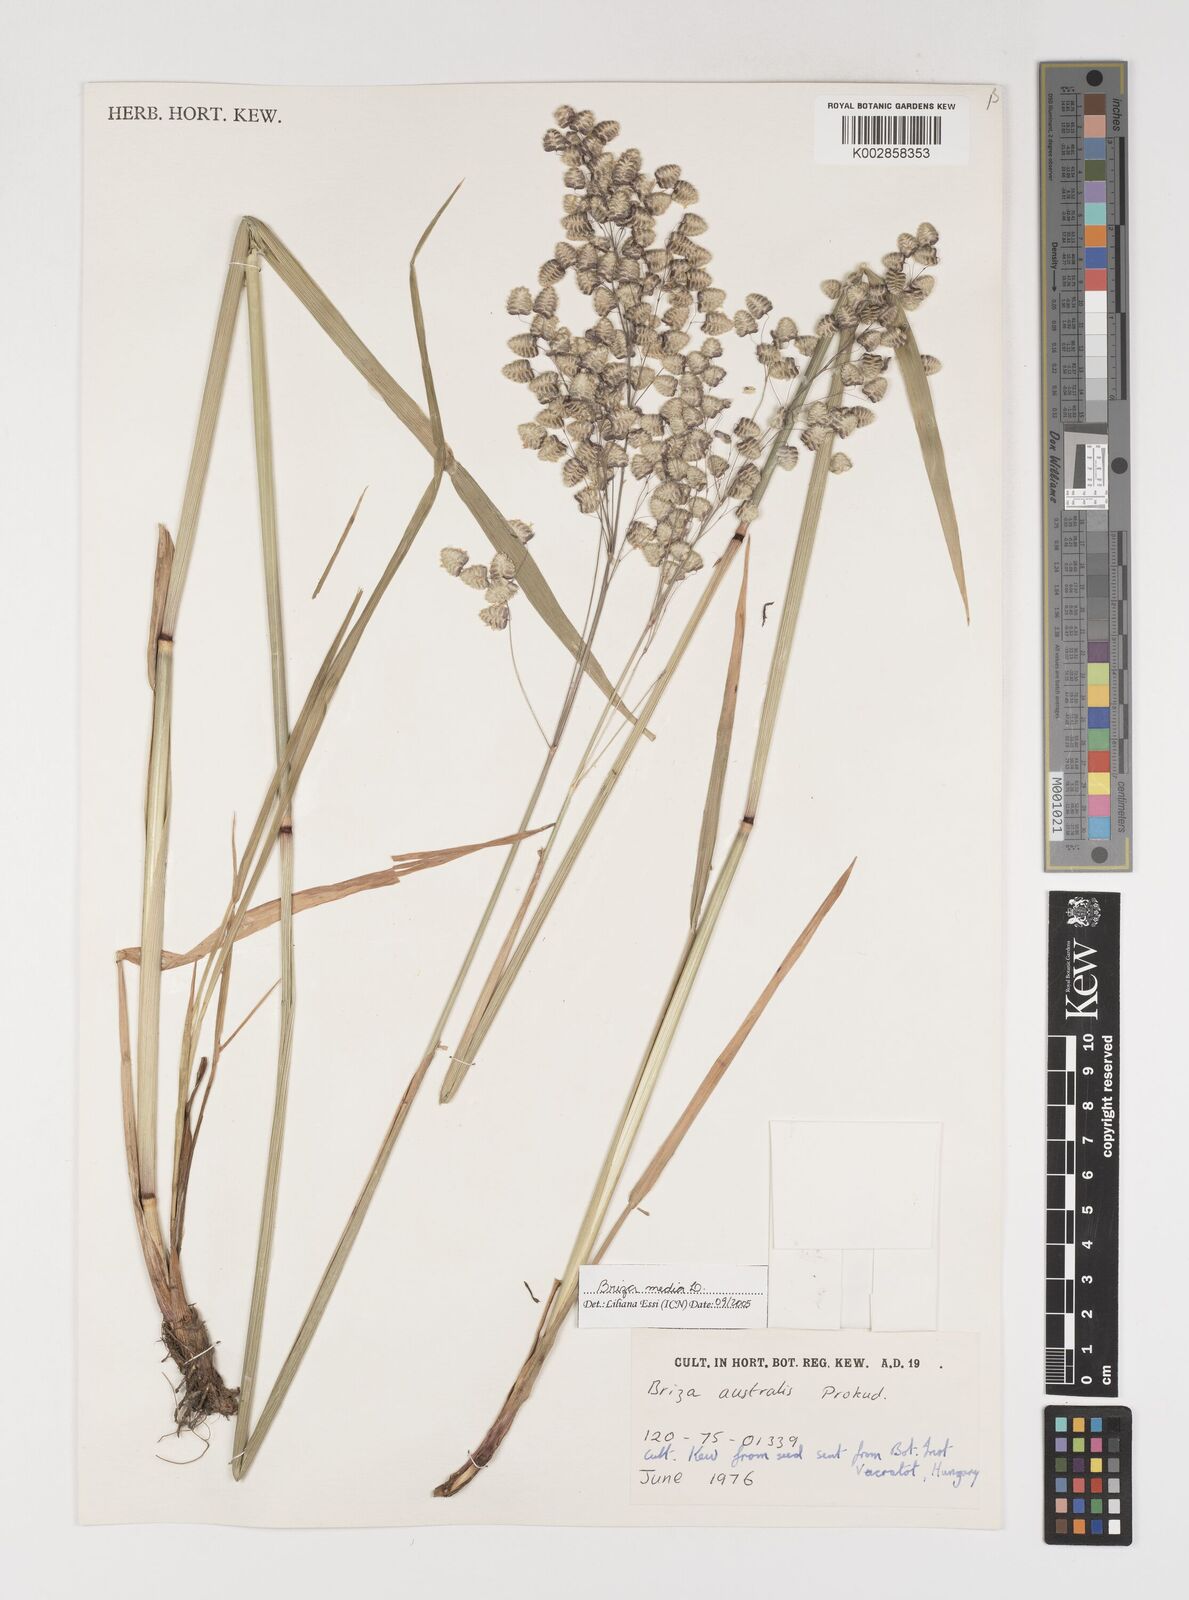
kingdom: Plantae
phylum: Tracheophyta
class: Liliopsida
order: Poales
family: Poaceae
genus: Briza
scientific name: Briza media
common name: Quaking grass
